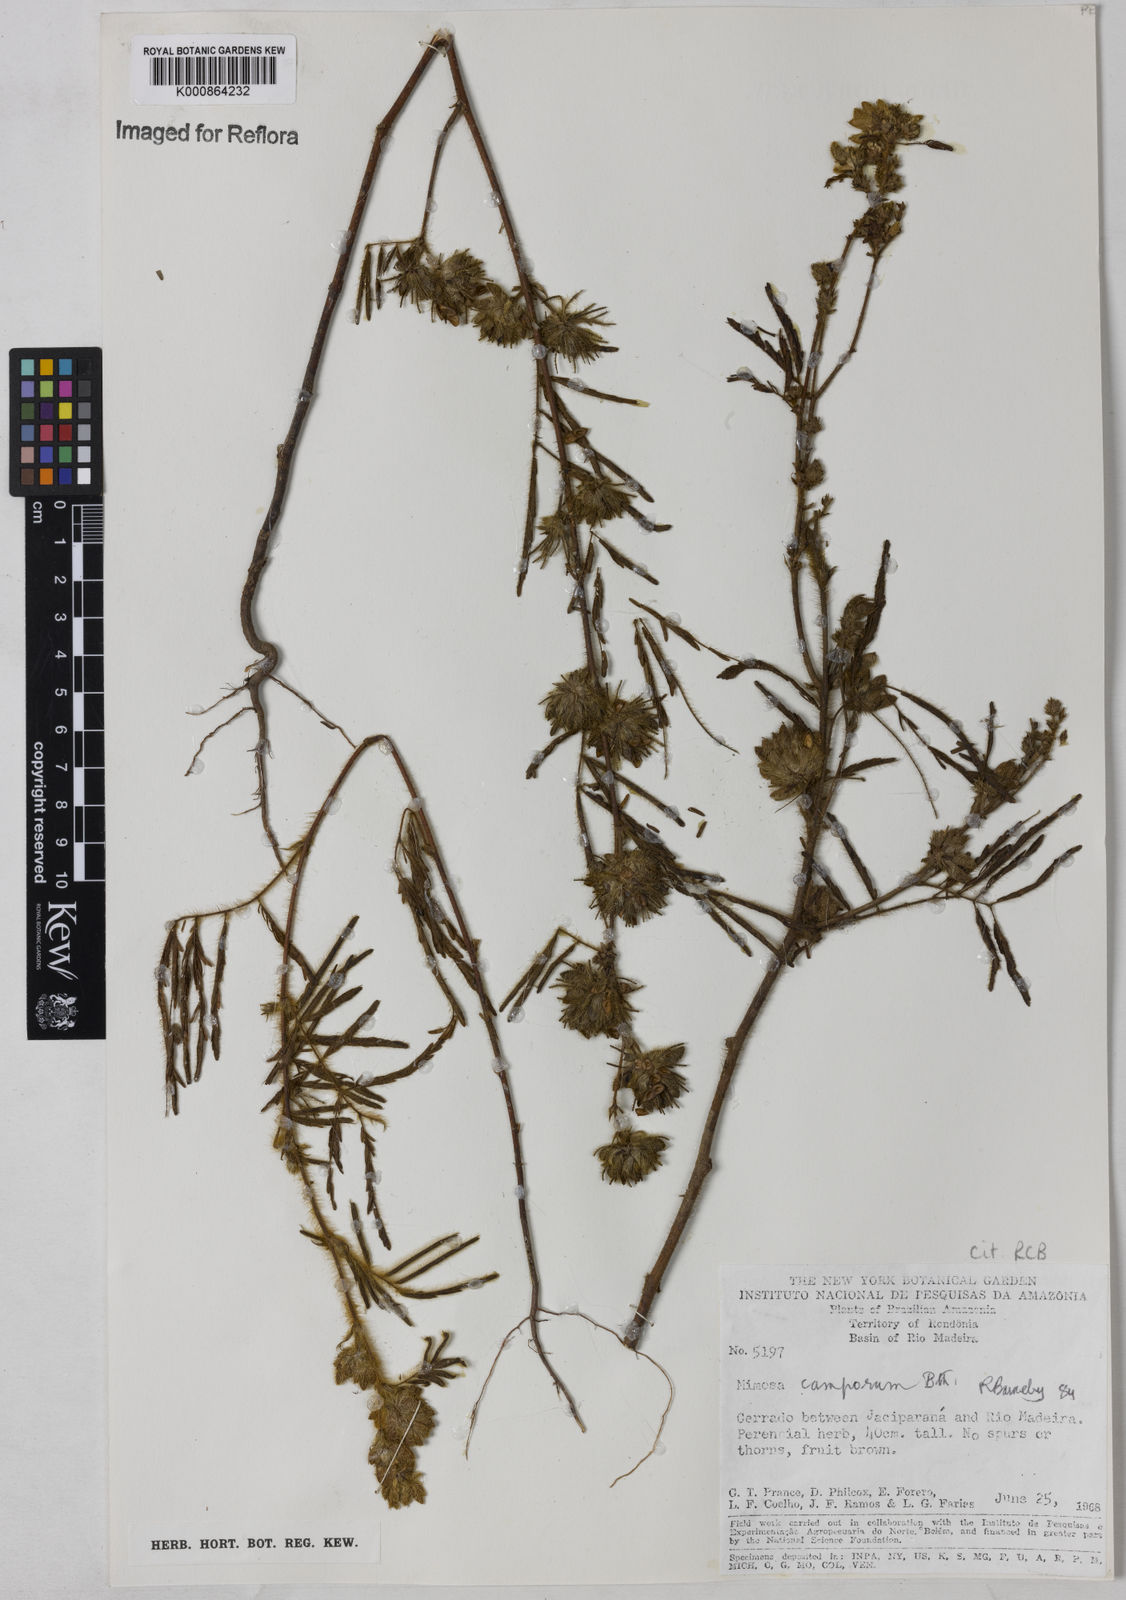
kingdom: Plantae
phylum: Tracheophyta
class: Magnoliopsida
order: Fabales
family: Fabaceae
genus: Mimosa
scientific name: Mimosa camporum
